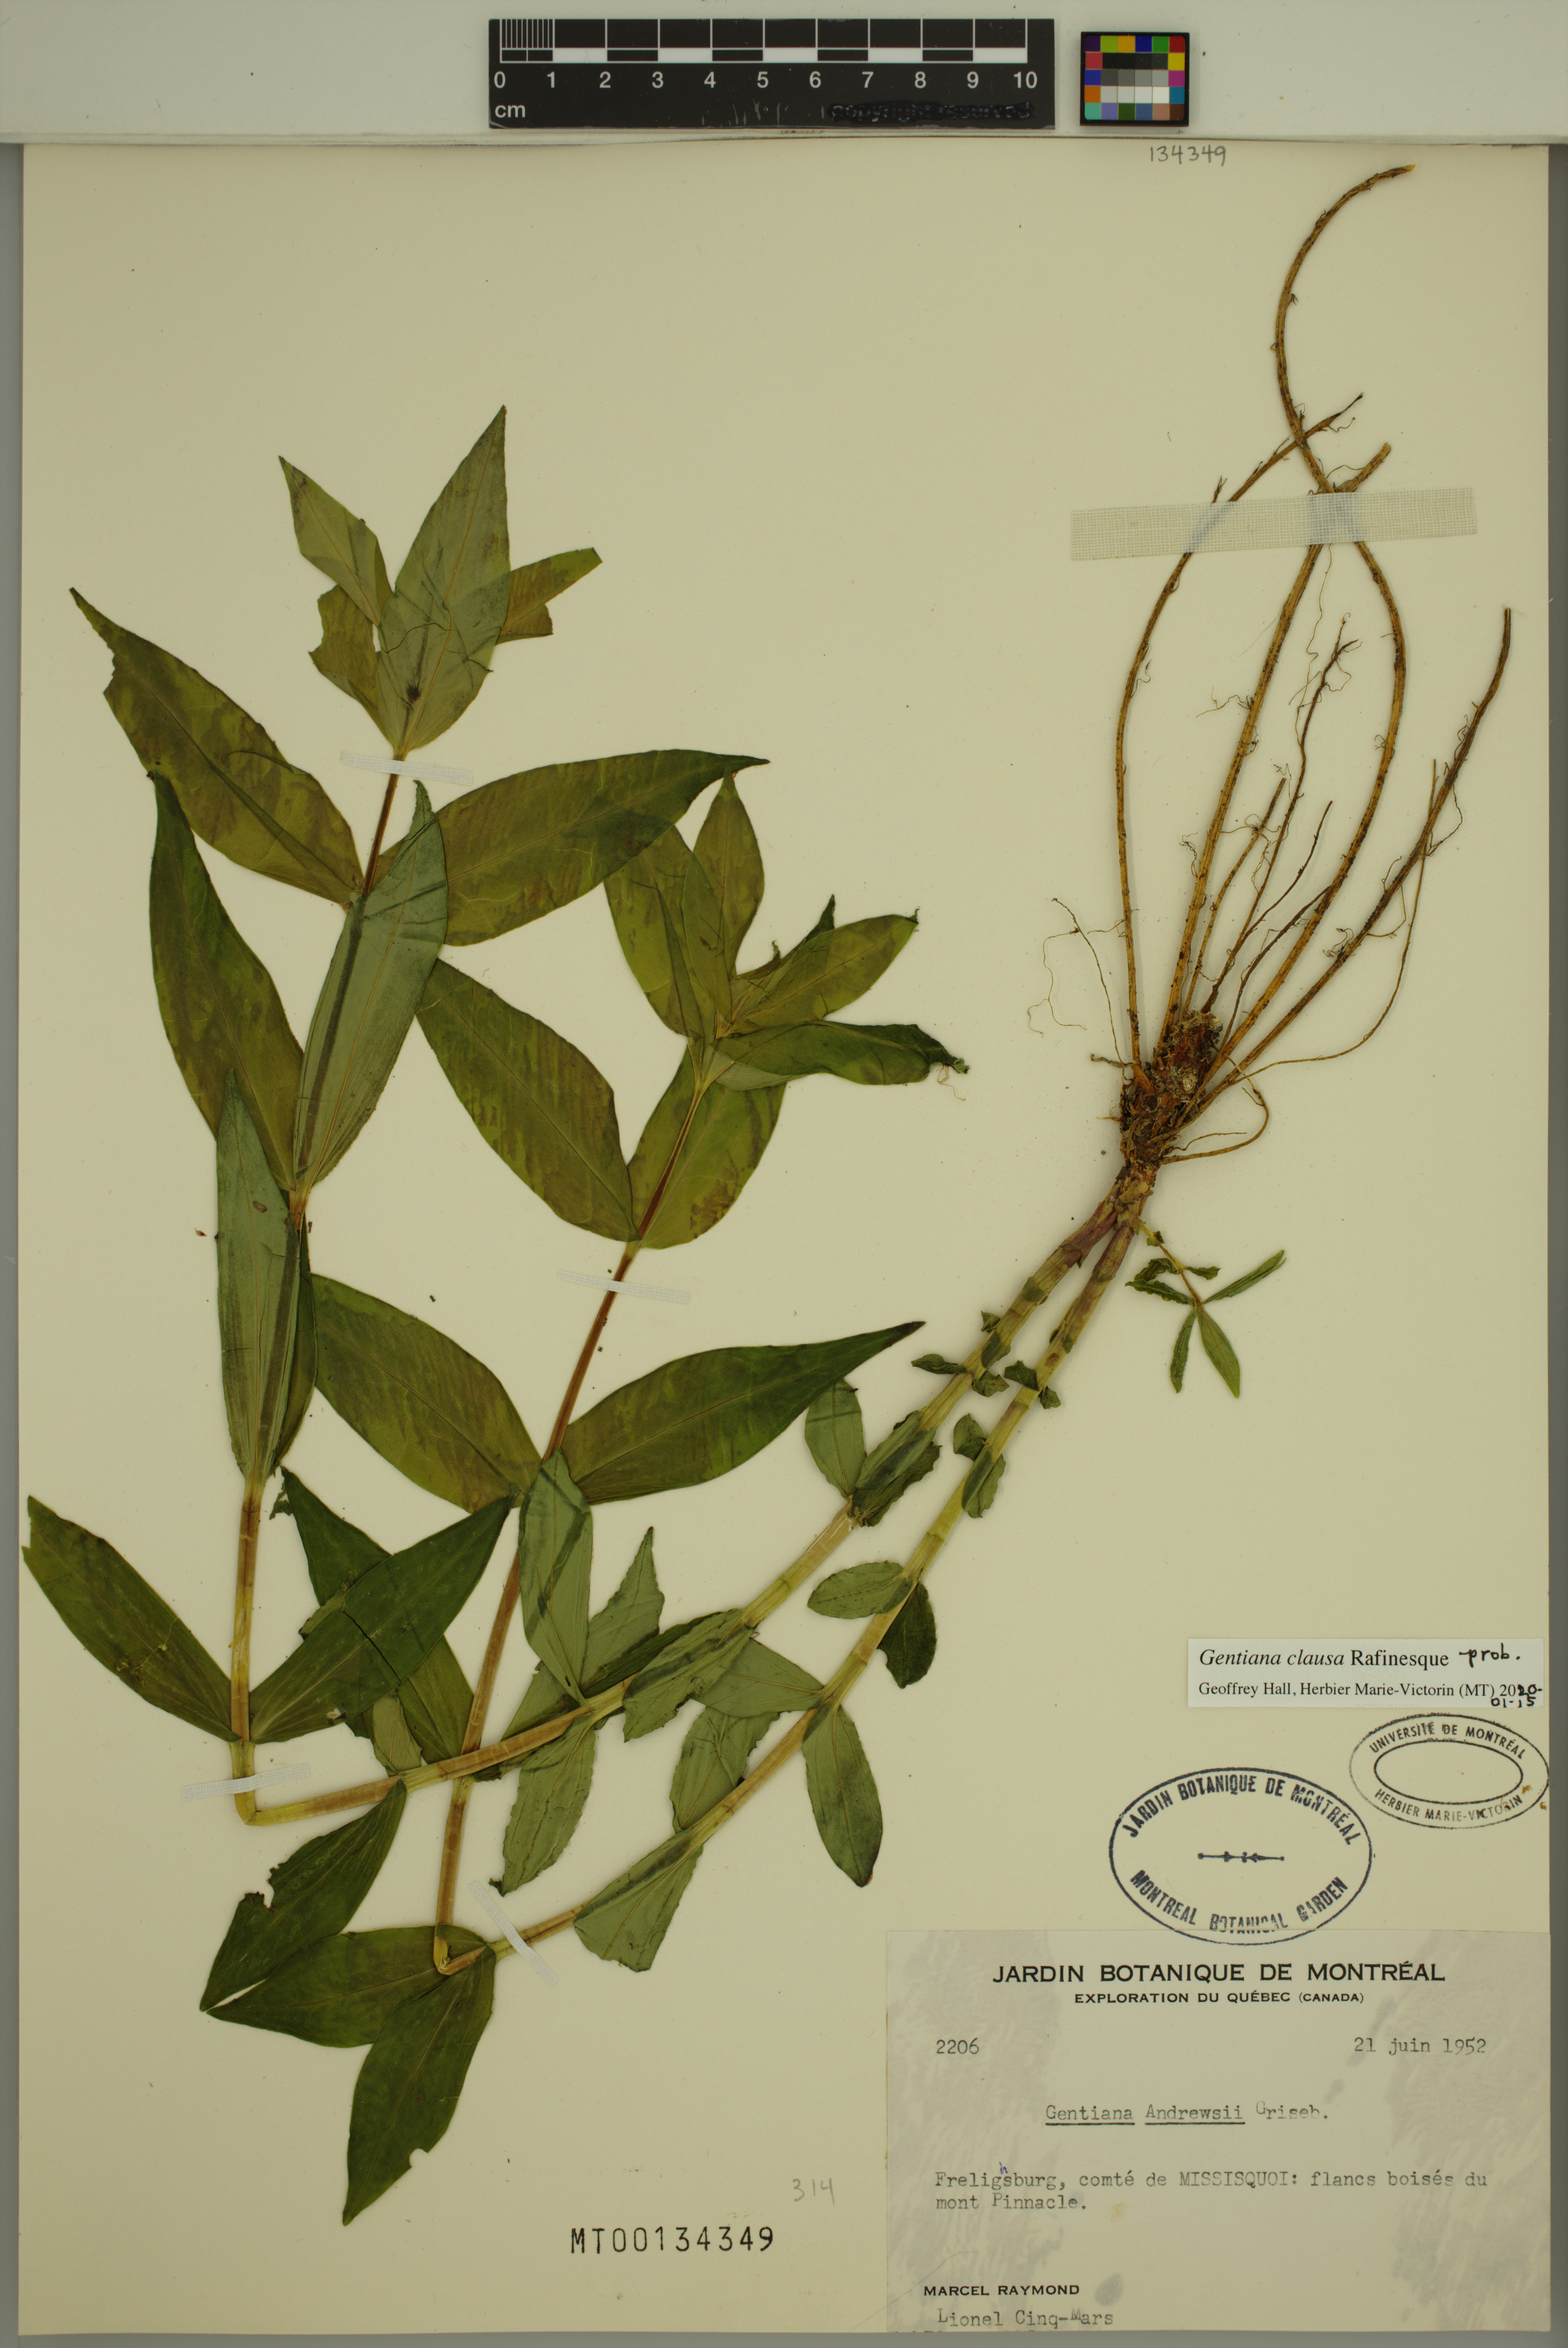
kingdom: Plantae
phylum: Tracheophyta
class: Magnoliopsida
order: Gentianales
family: Gentianaceae
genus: Gentiana
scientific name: Gentiana clausa
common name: Blind gentian
